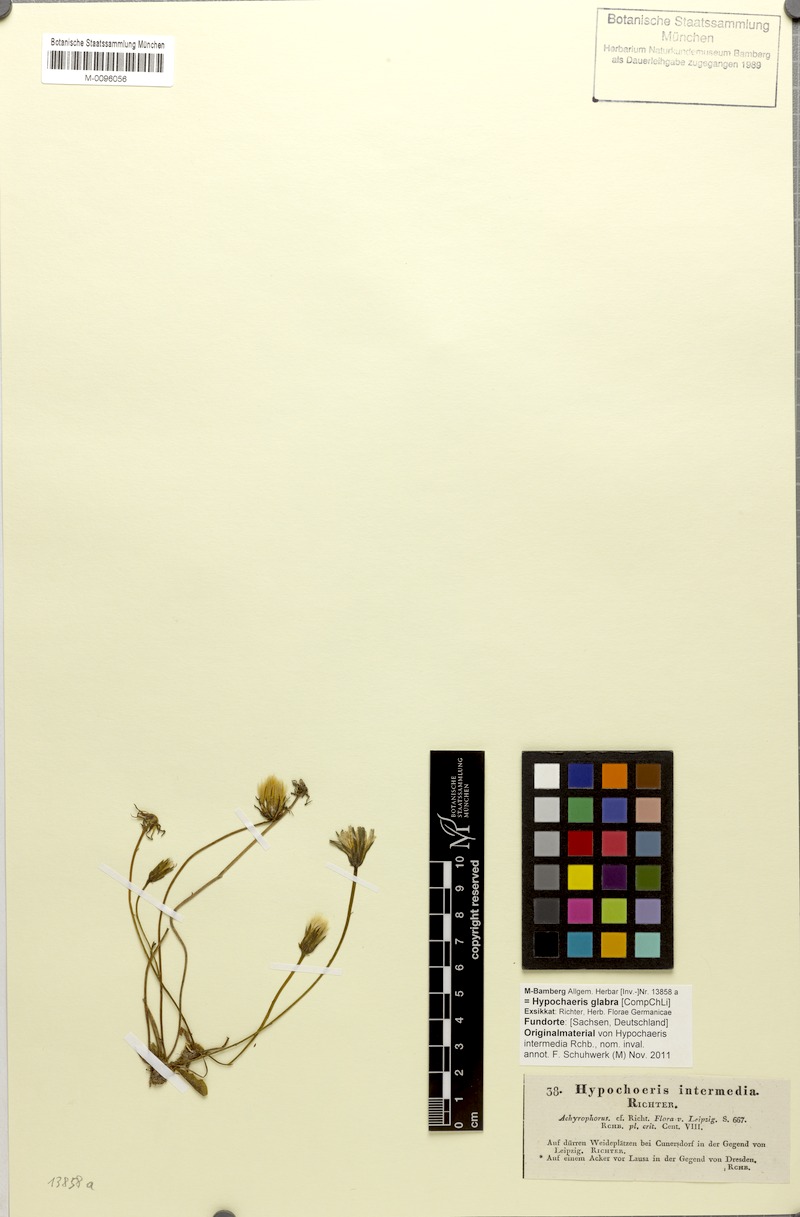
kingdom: Plantae
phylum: Tracheophyta
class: Magnoliopsida
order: Asterales
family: Asteraceae
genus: Hypochaeris
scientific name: Hypochaeris glabra
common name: Smooth catsear
